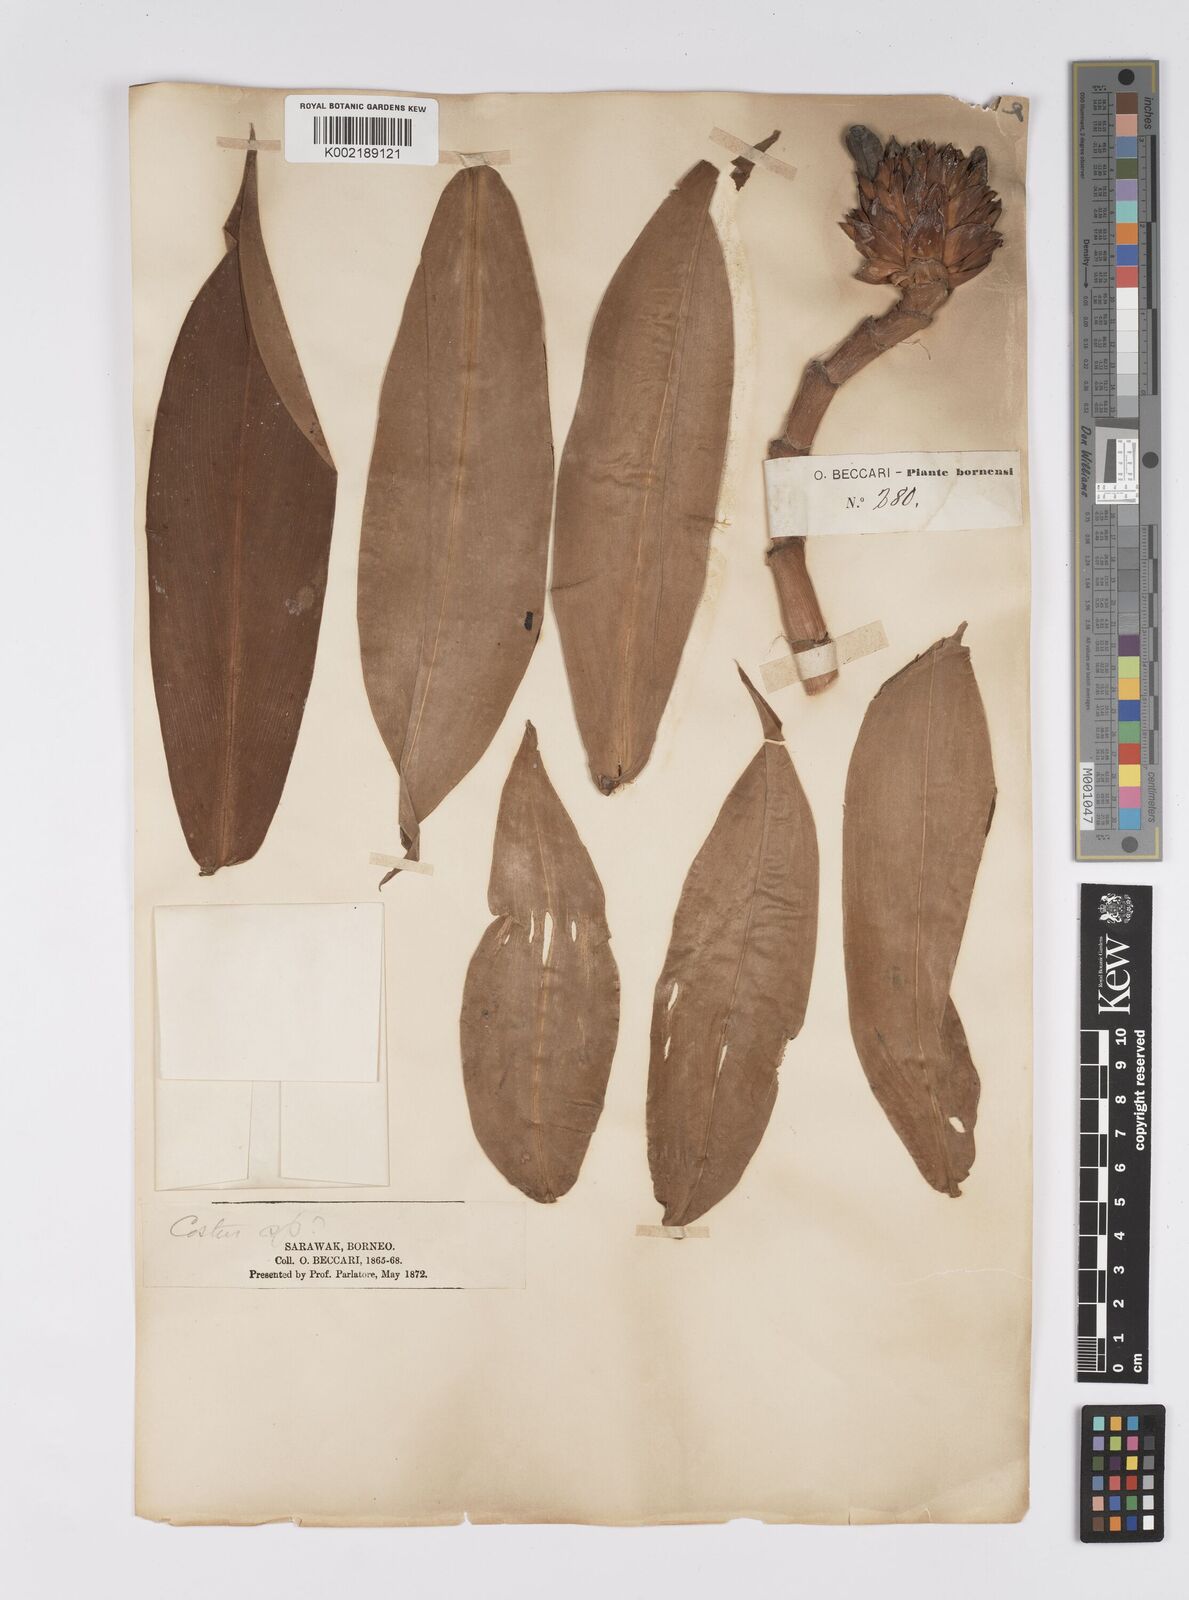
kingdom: Plantae
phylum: Tracheophyta
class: Liliopsida
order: Zingiberales
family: Costaceae
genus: Hellenia
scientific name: Hellenia speciosa
